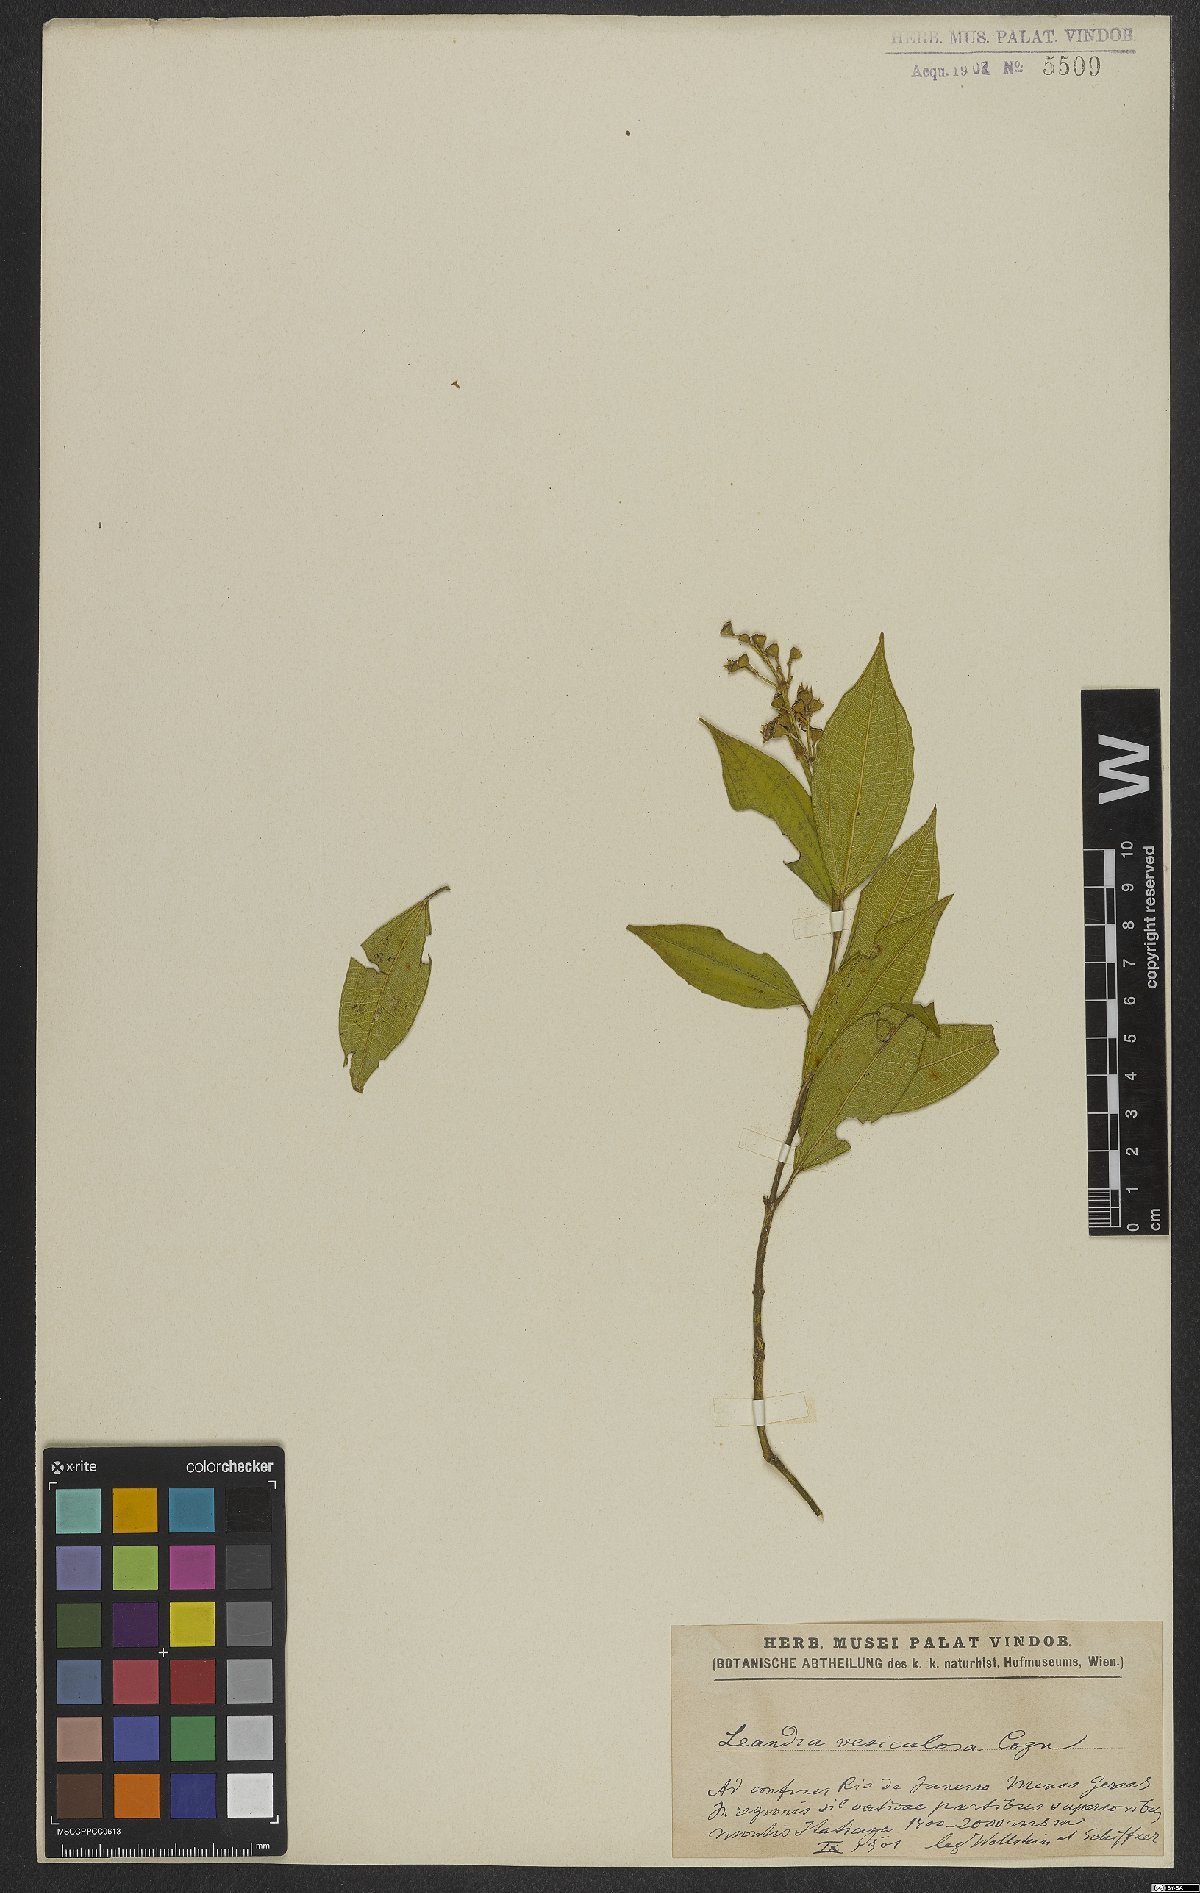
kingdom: Plantae
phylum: Tracheophyta
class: Magnoliopsida
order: Myrtales
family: Melastomataceae
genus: Miconia
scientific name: Miconia vesiculosa
